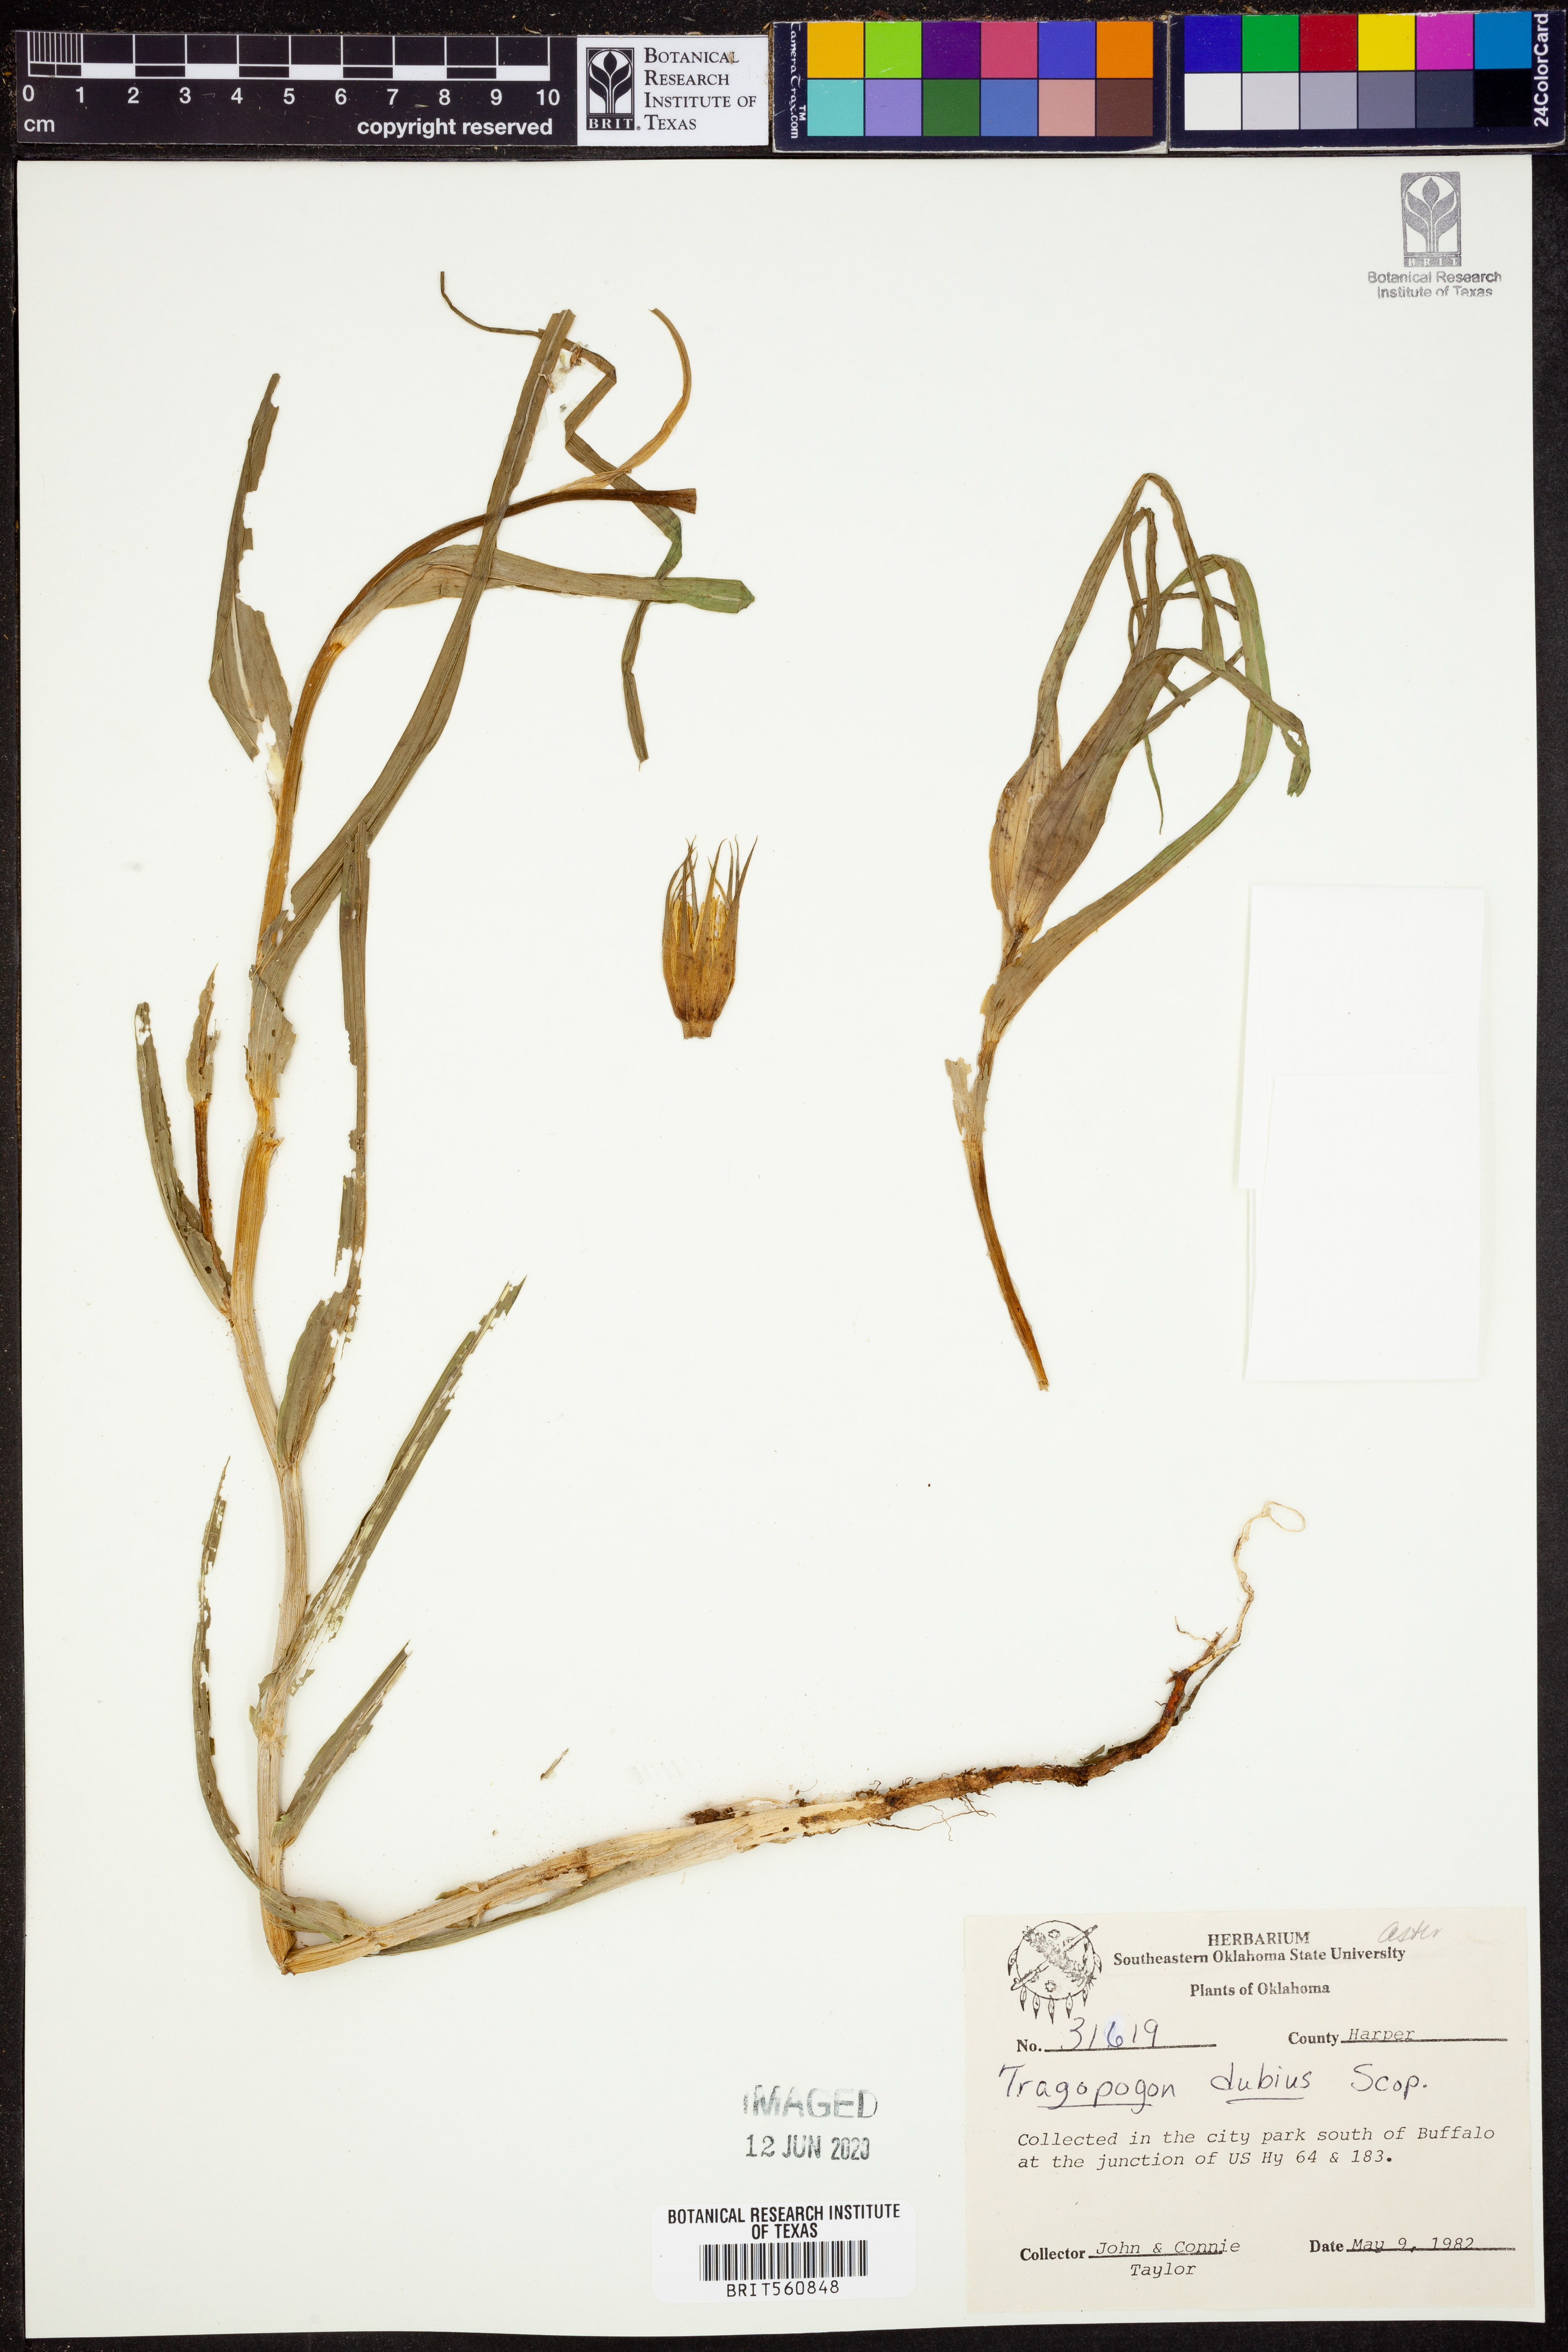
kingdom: Plantae
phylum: Tracheophyta
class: Magnoliopsida
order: Asterales
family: Asteraceae
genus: Tragopogon
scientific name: Tragopogon dubius
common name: Yellow salsify
